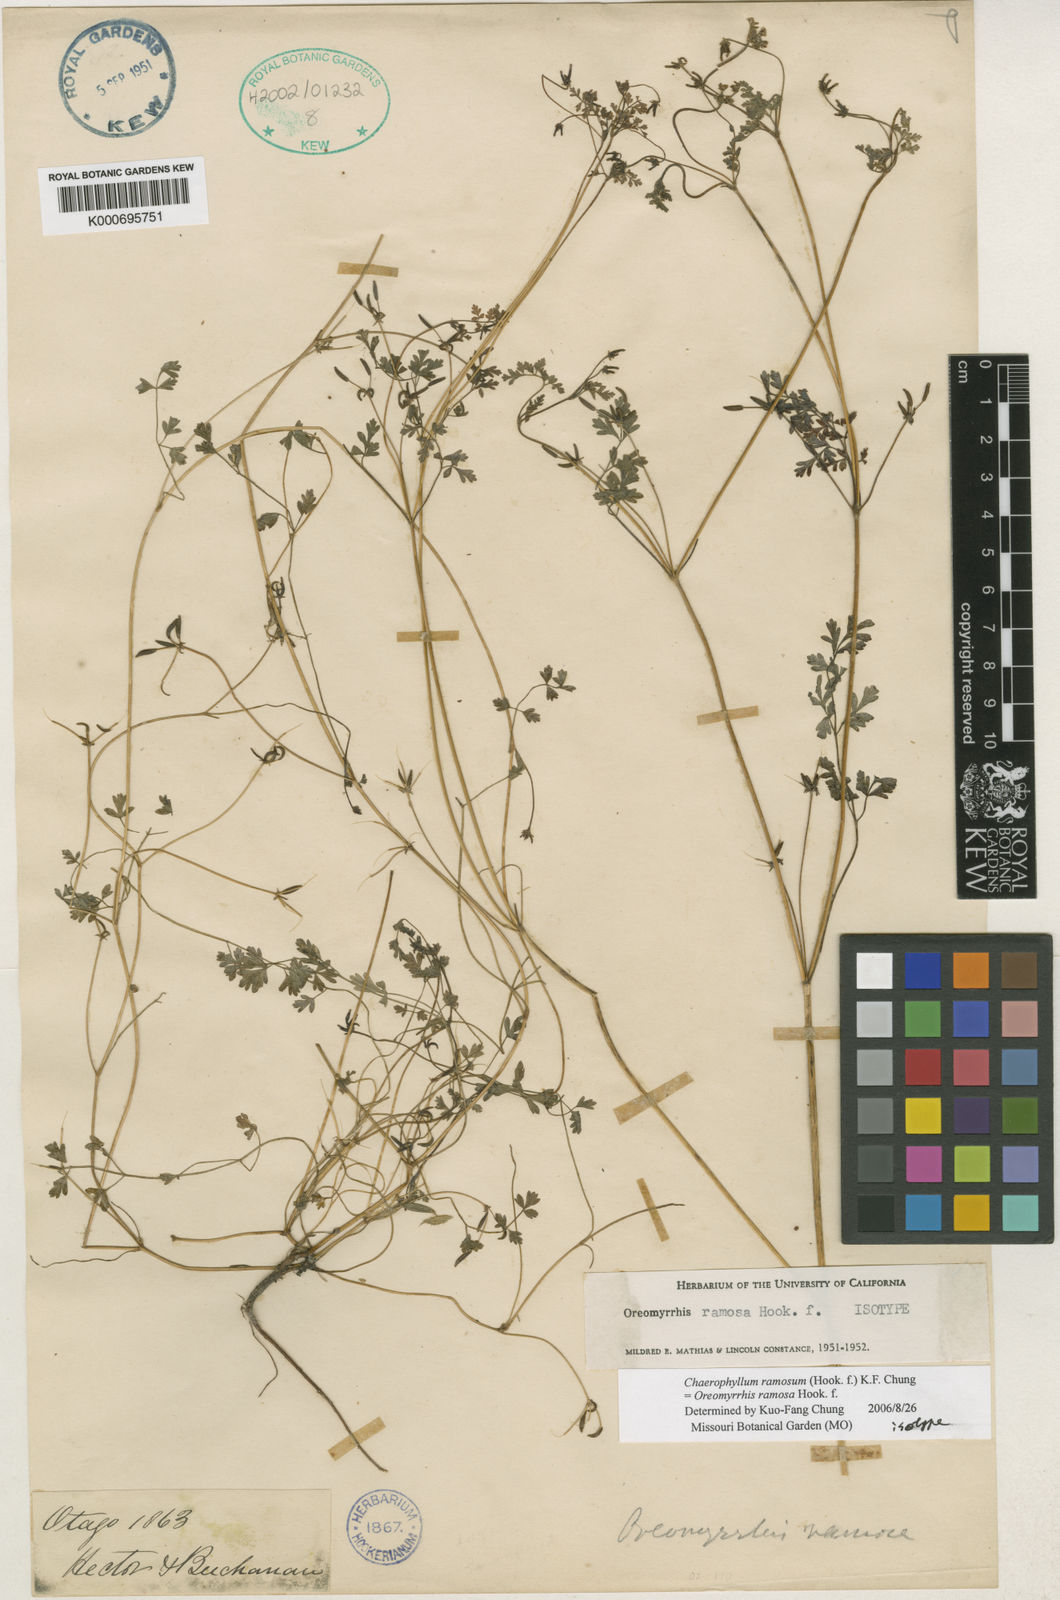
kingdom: Plantae
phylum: Tracheophyta
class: Magnoliopsida
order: Apiales
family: Apiaceae
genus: Chaerophyllum
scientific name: Chaerophyllum ramosum
